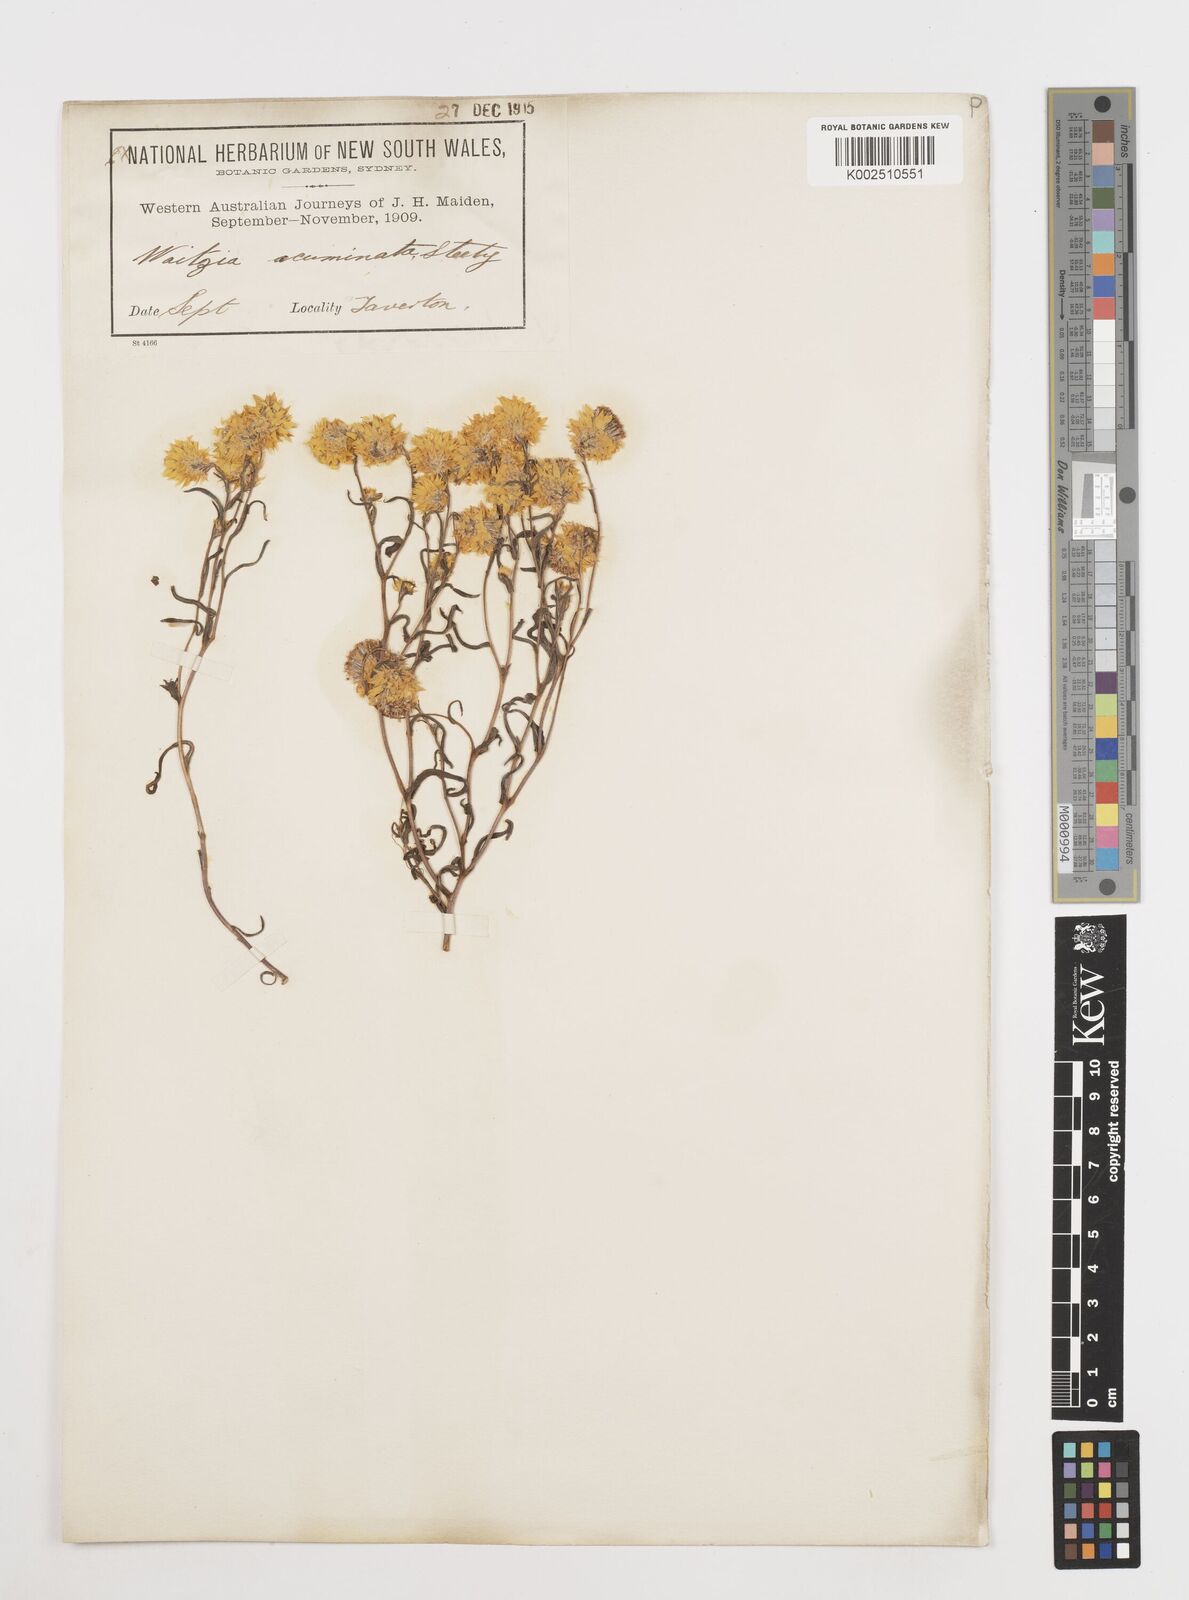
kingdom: Plantae
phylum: Tracheophyta
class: Magnoliopsida
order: Asterales
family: Asteraceae
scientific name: Asteraceae
